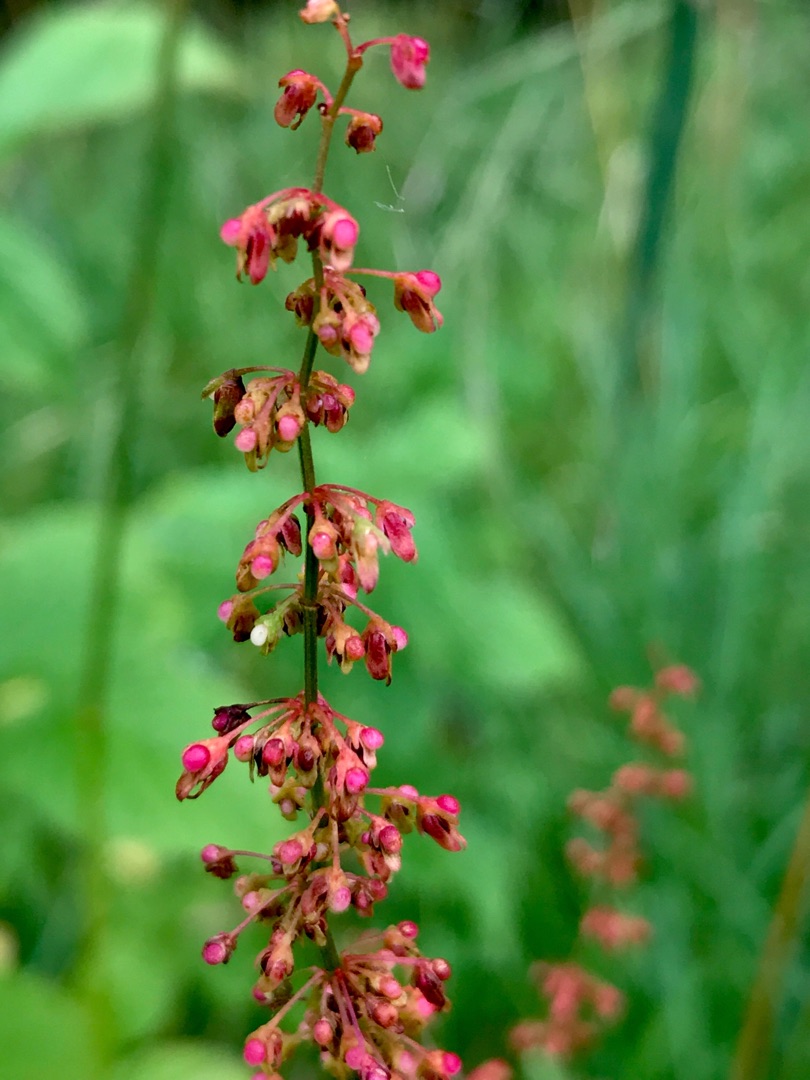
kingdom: Plantae
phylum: Tracheophyta
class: Magnoliopsida
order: Caryophyllales
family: Polygonaceae
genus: Rumex
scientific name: Rumex sanguineus
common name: Skov-skræppe
